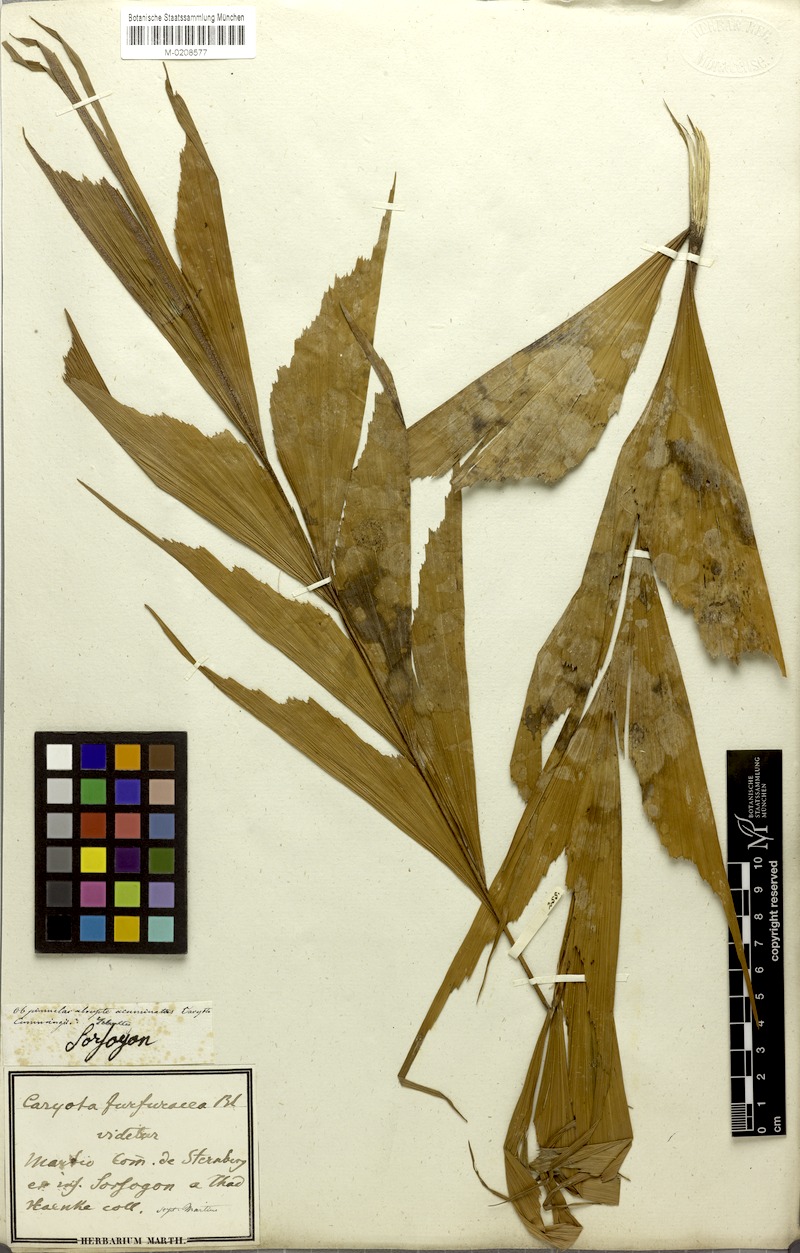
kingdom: Plantae
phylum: Tracheophyta
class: Liliopsida
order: Arecales
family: Arecaceae
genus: Caryota
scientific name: Caryota mitis
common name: Burmese fishtail palm
